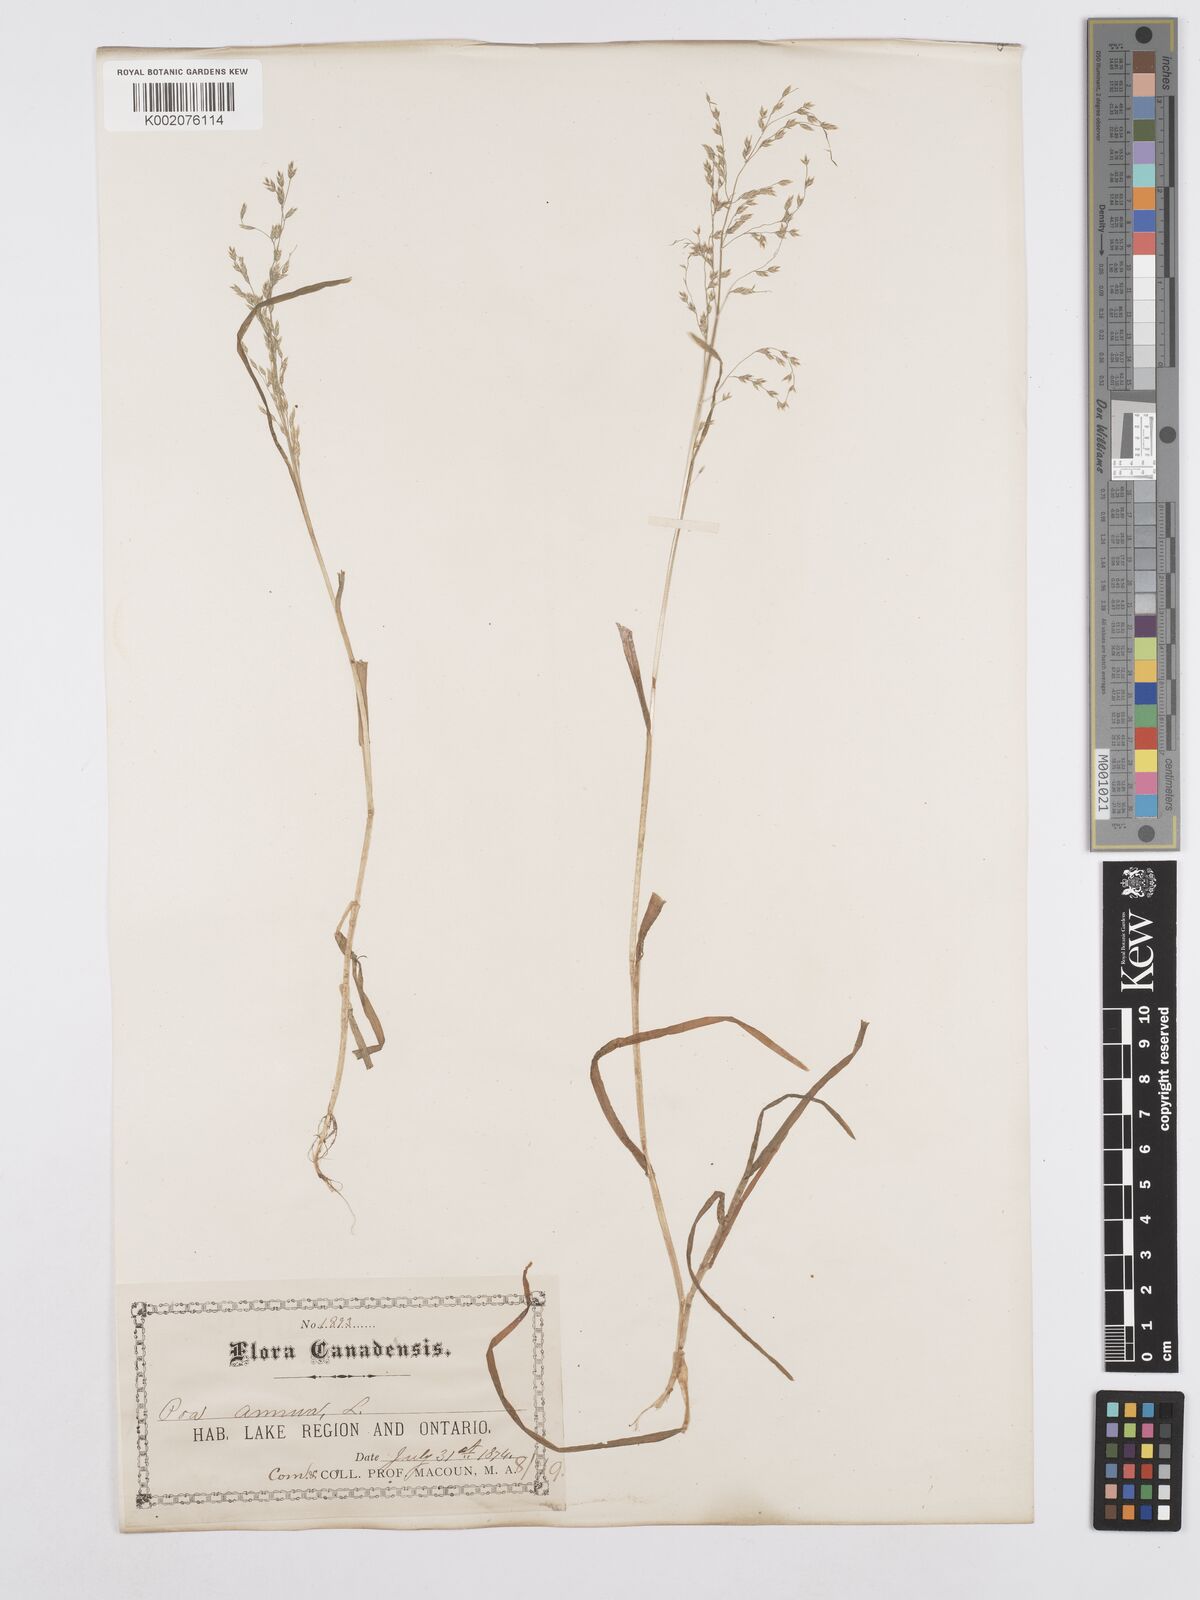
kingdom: Plantae
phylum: Tracheophyta
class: Liliopsida
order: Poales
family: Poaceae
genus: Poa
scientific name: Poa annua
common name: Annual bluegrass
